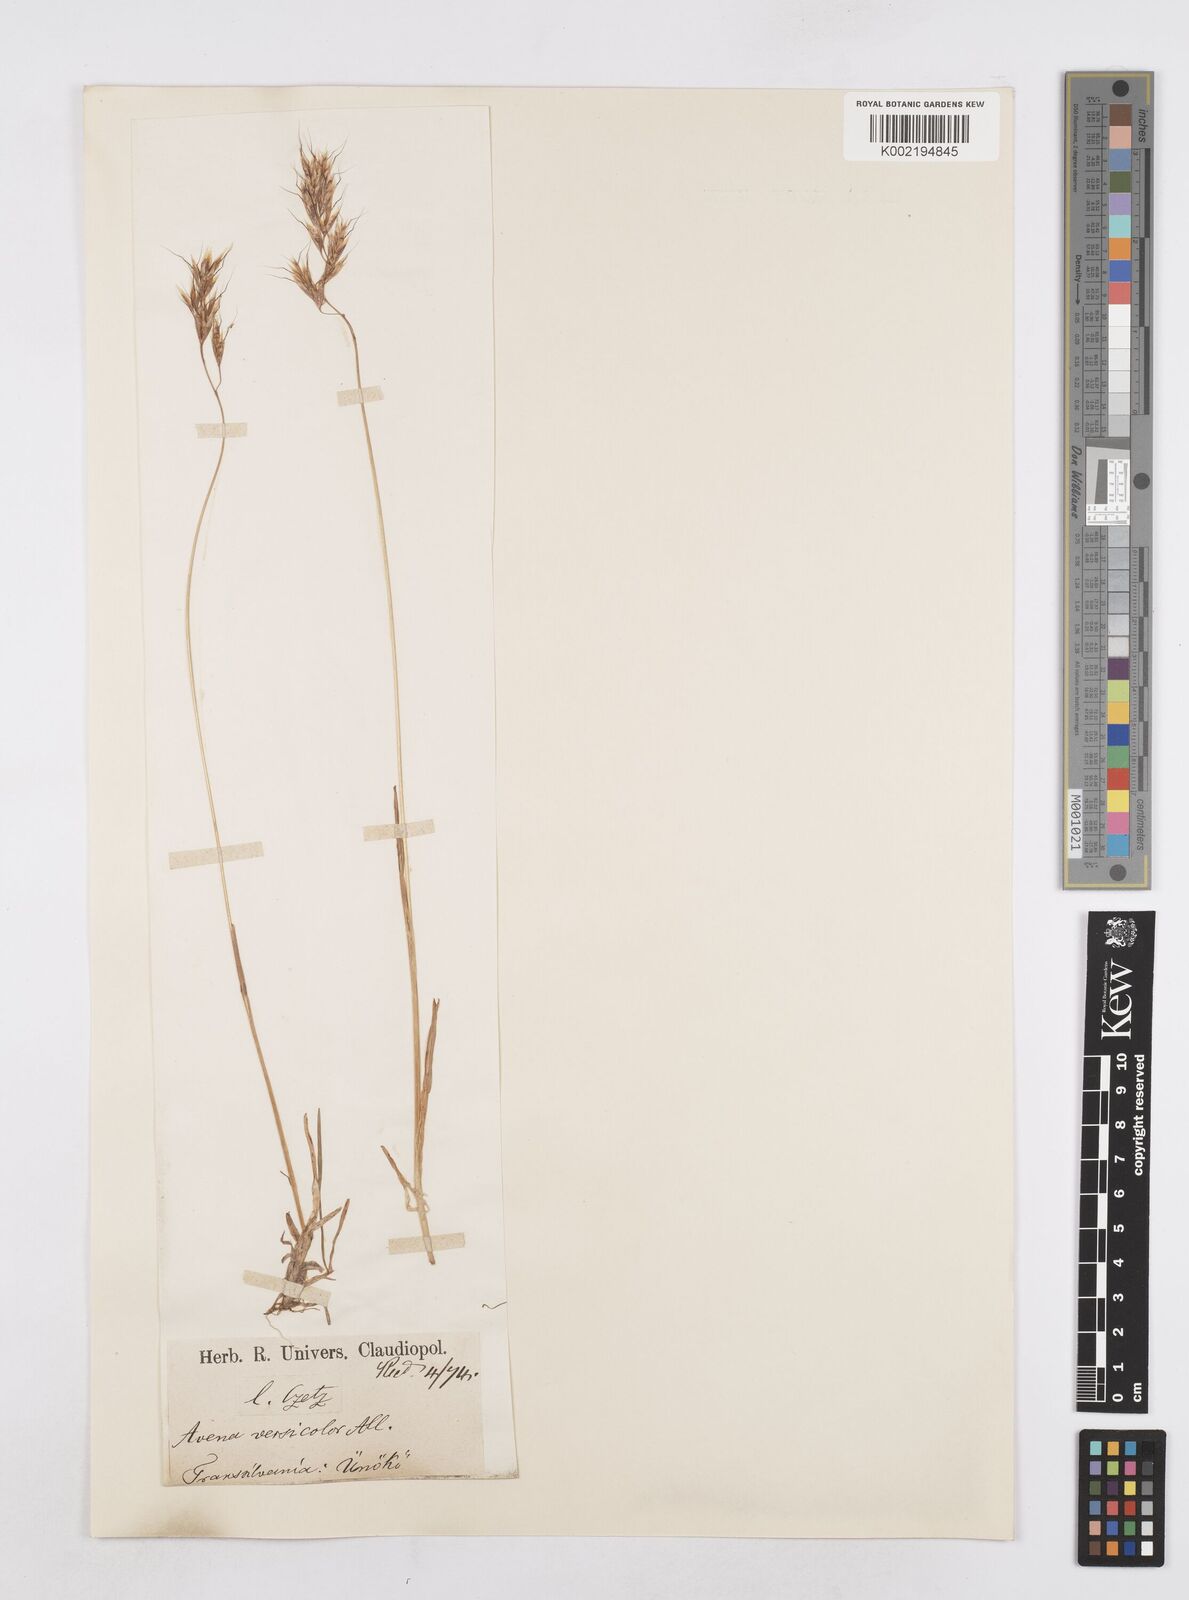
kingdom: Plantae
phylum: Tracheophyta
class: Liliopsida
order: Poales
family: Poaceae
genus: Helictochloa
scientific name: Helictochloa versicolor
